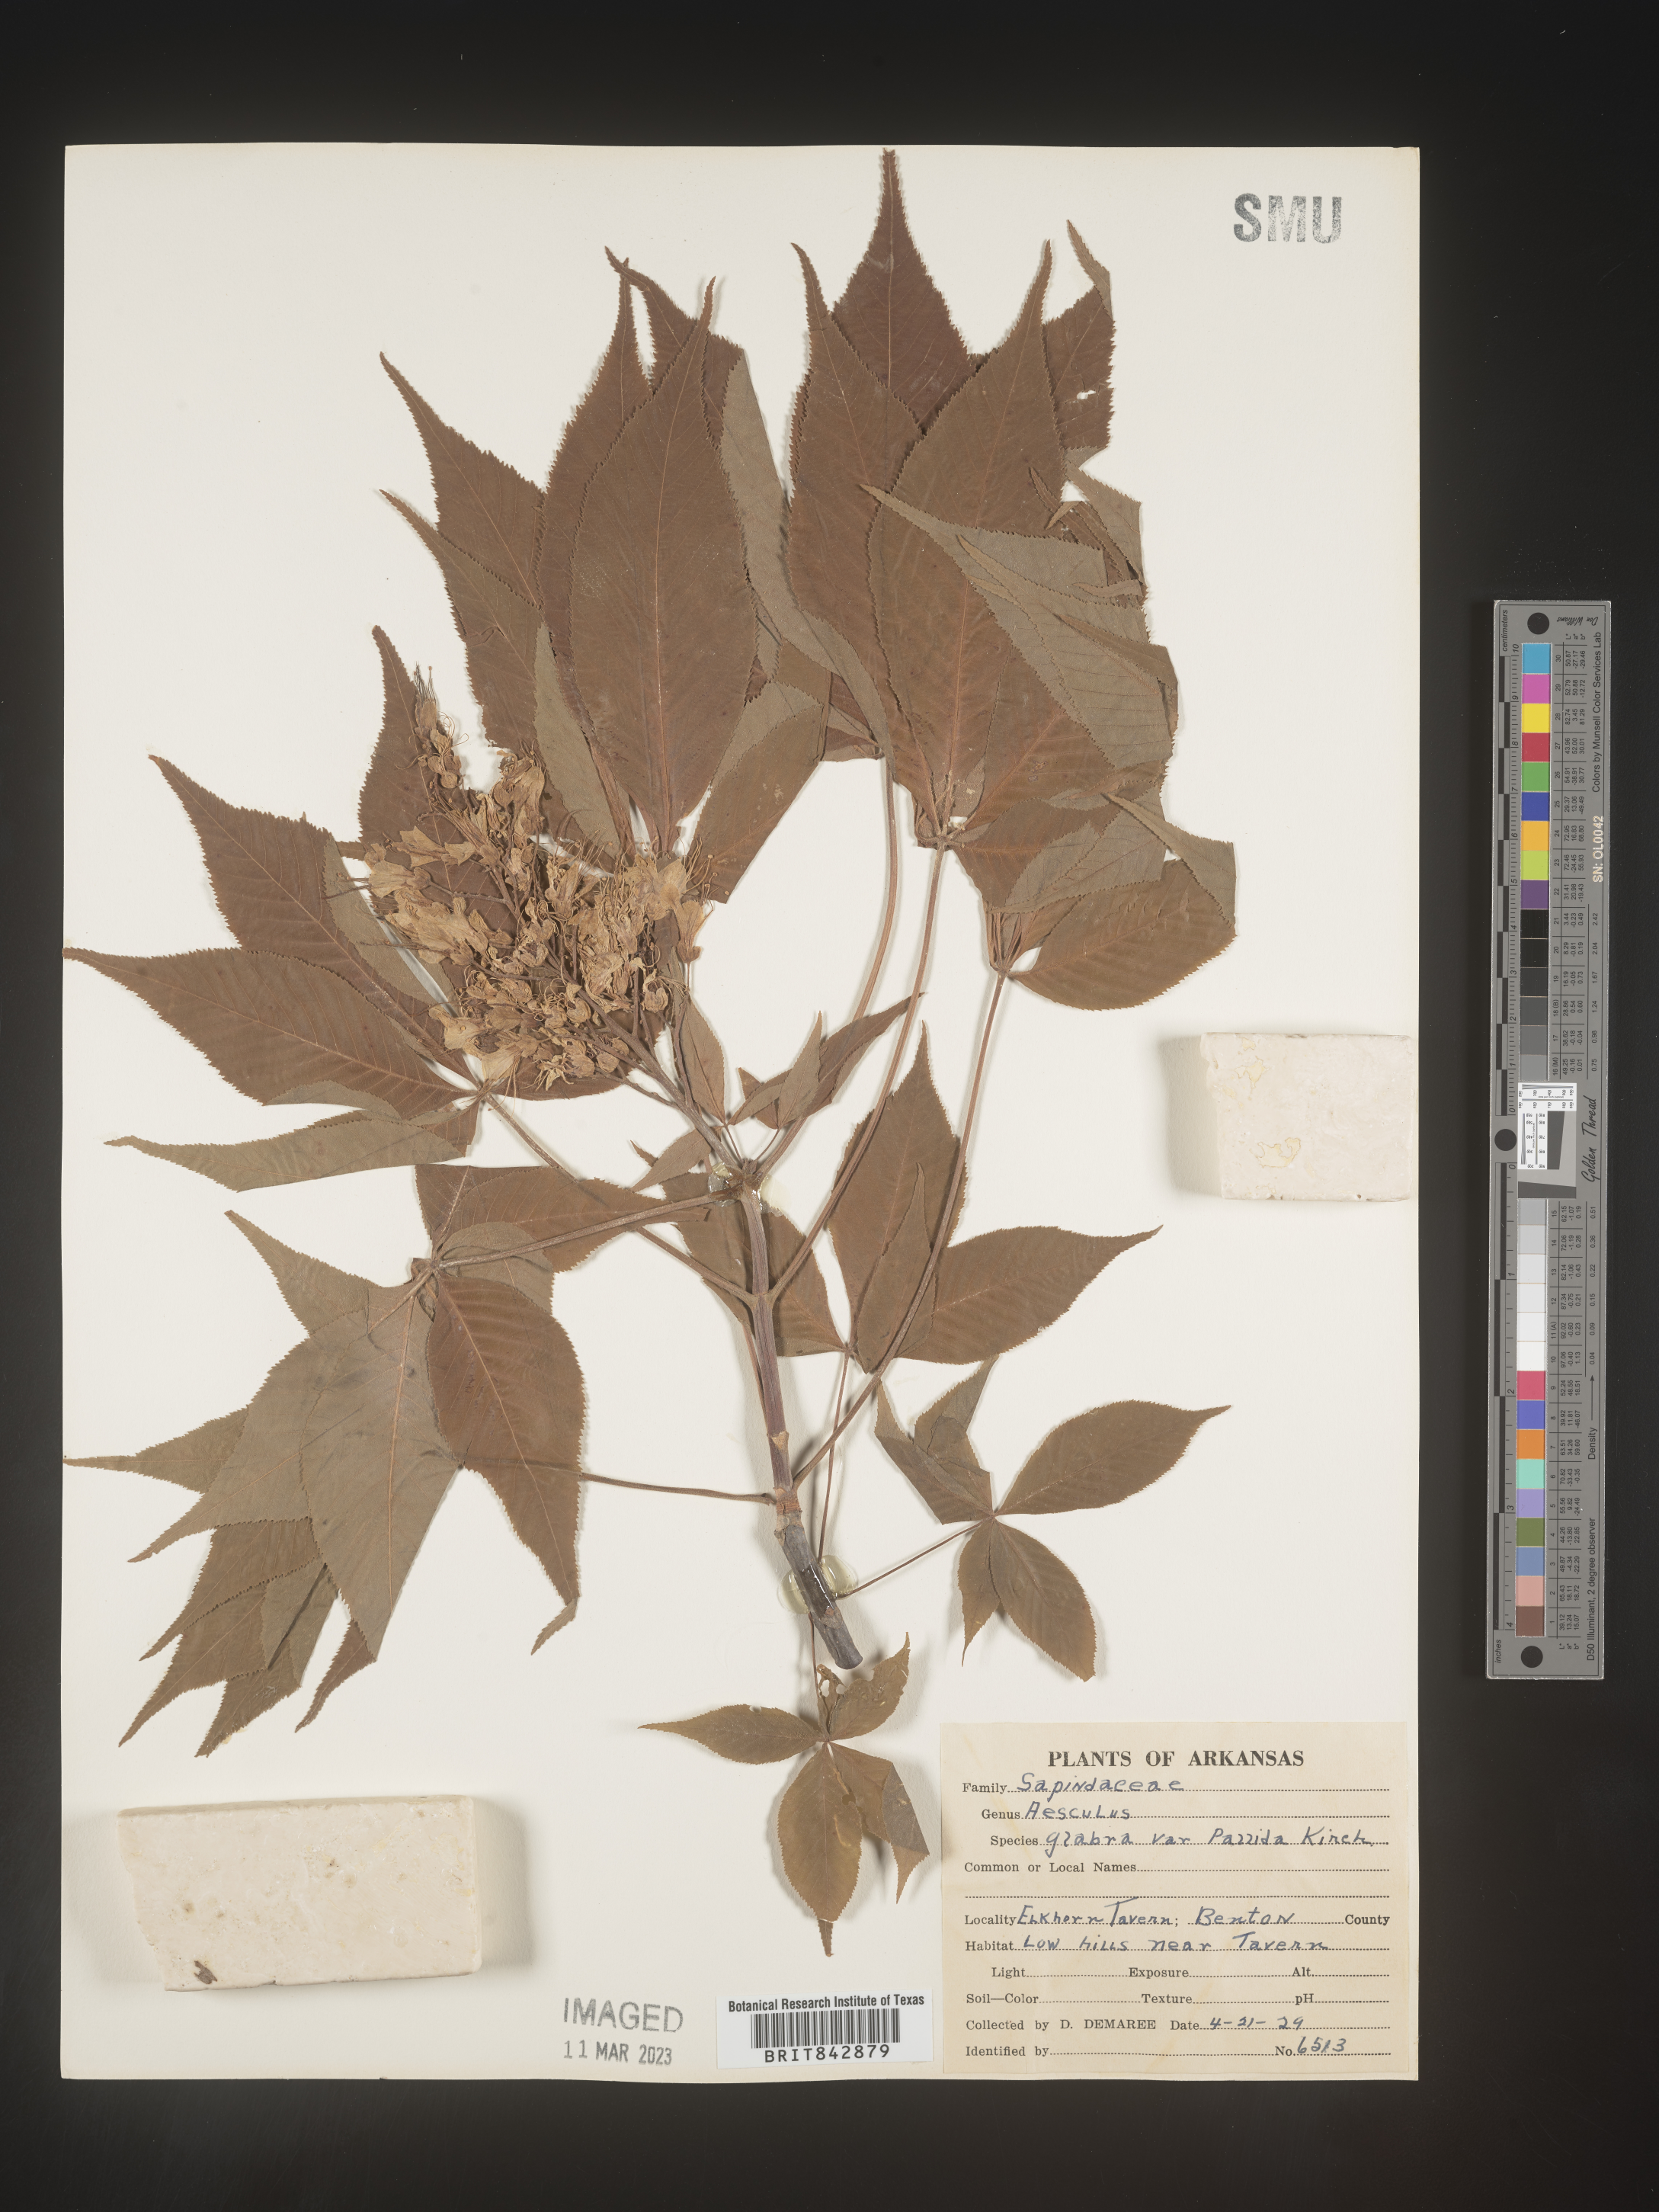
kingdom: Plantae
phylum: Tracheophyta
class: Magnoliopsida
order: Sapindales
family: Sapindaceae
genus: Aesculus
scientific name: Aesculus glabra
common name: Ohio buckeye
